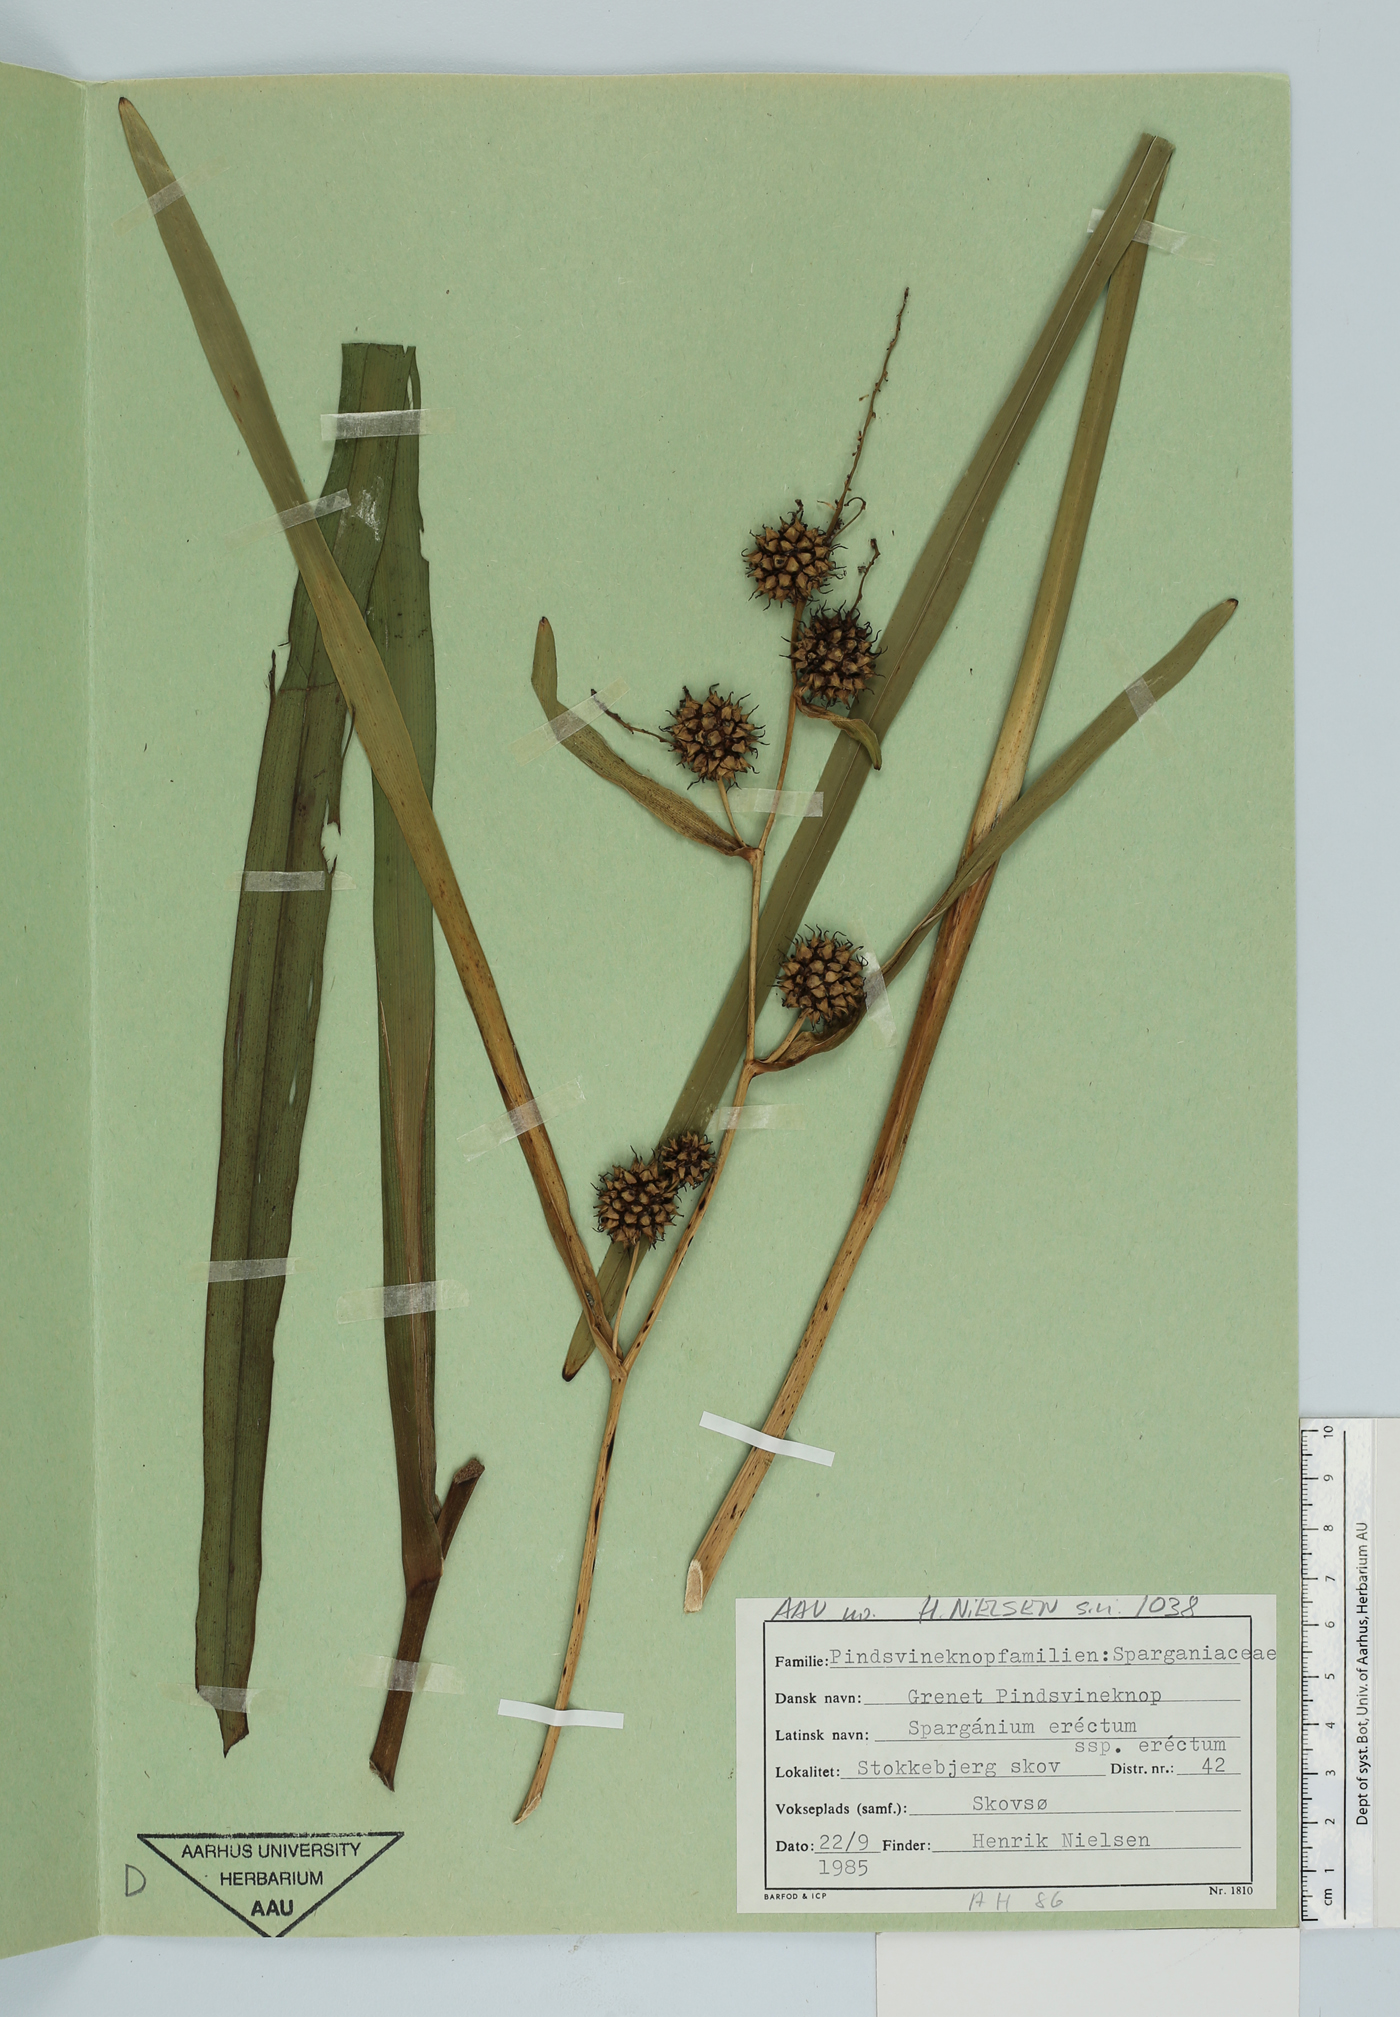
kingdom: Plantae
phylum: Tracheophyta
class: Liliopsida
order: Poales
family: Typhaceae
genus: Sparganium
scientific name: Sparganium erectum
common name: Branched bur-reed
